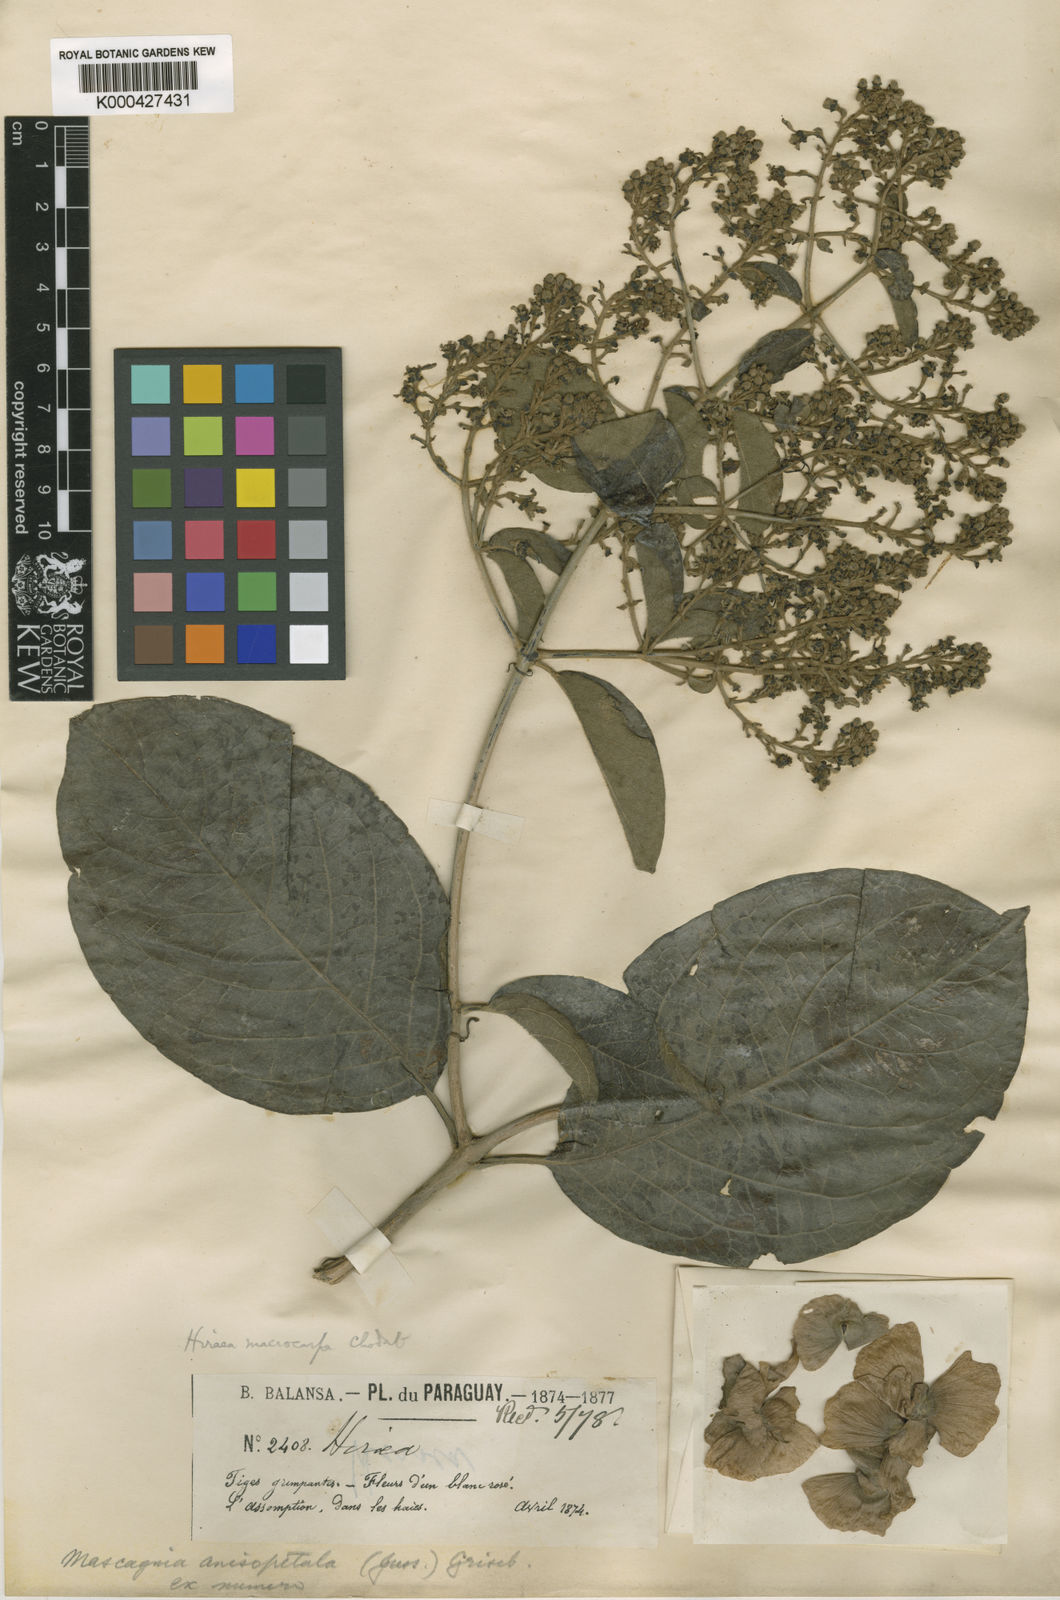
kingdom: Plantae
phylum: Tracheophyta
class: Magnoliopsida
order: Malpighiales
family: Malpighiaceae
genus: Alicia
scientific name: Alicia anisopetala
